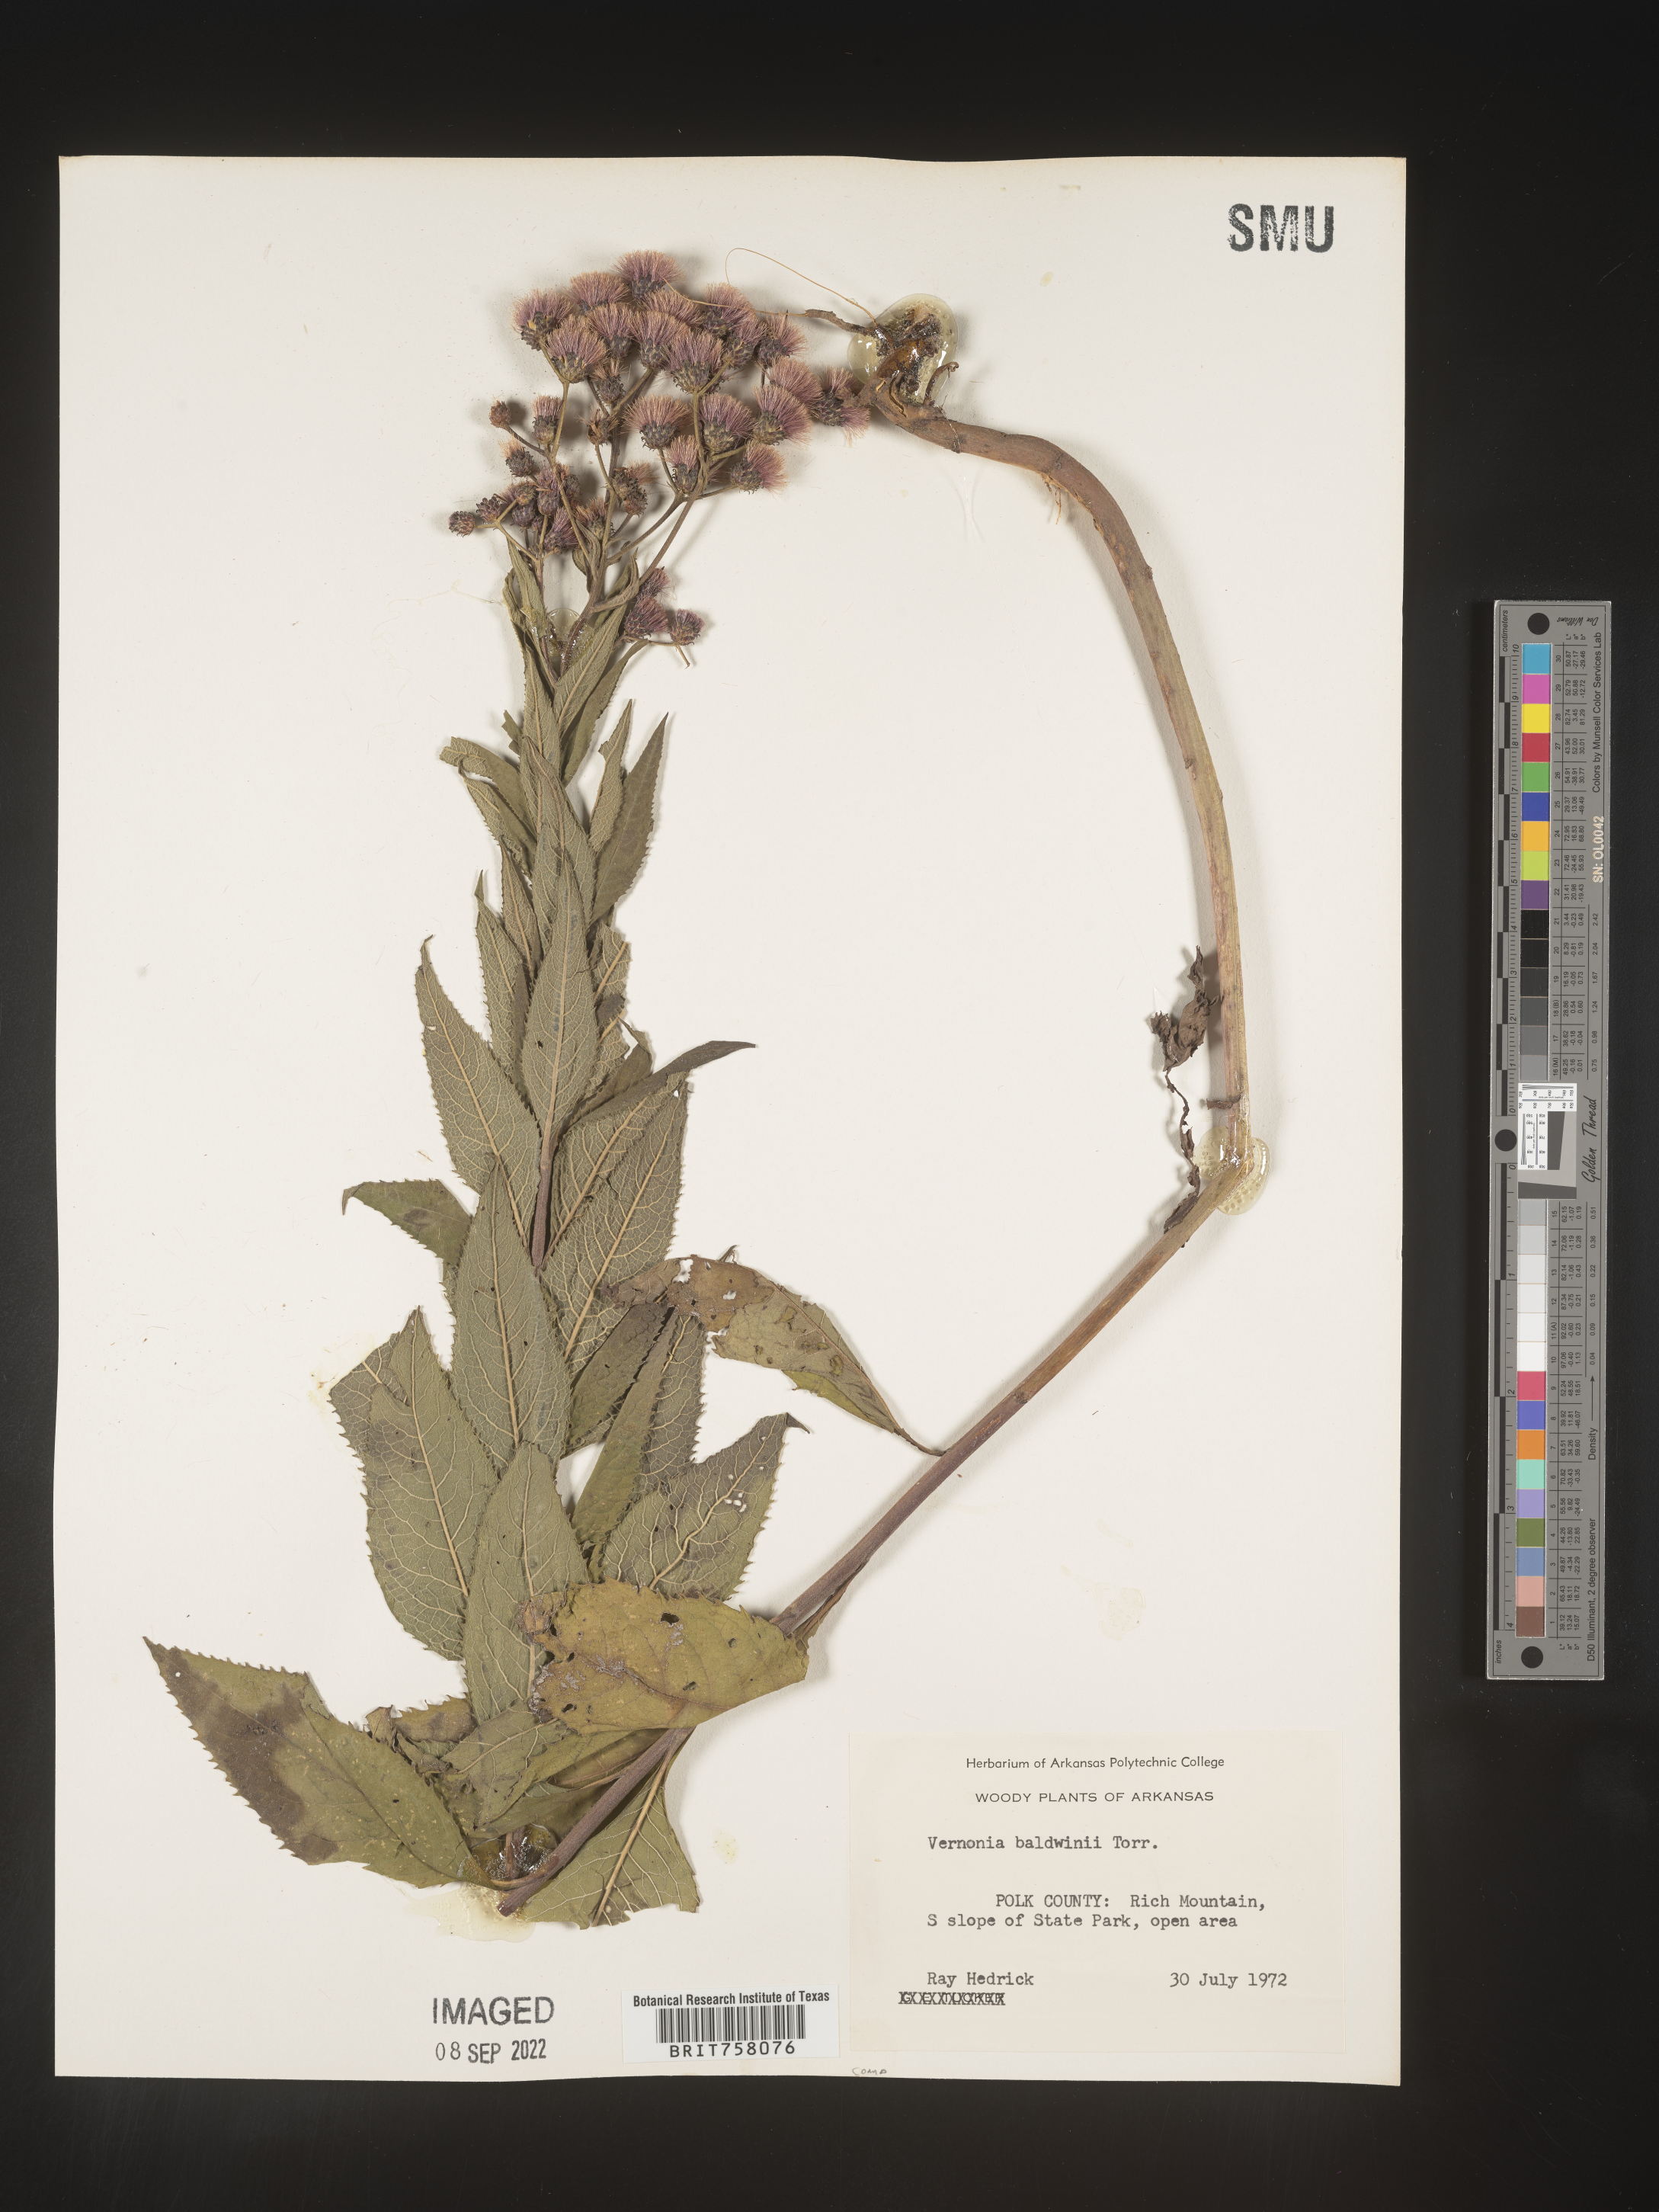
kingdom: Plantae
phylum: Tracheophyta
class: Magnoliopsida
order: Asterales
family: Asteraceae
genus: Vernonia
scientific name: Vernonia baldwinii
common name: Western ironweed
